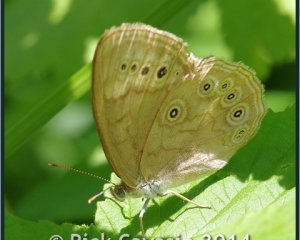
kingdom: Animalia
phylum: Arthropoda
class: Insecta
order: Lepidoptera
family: Nymphalidae
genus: Lethe
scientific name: Lethe eurydice
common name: Eyed Brown
